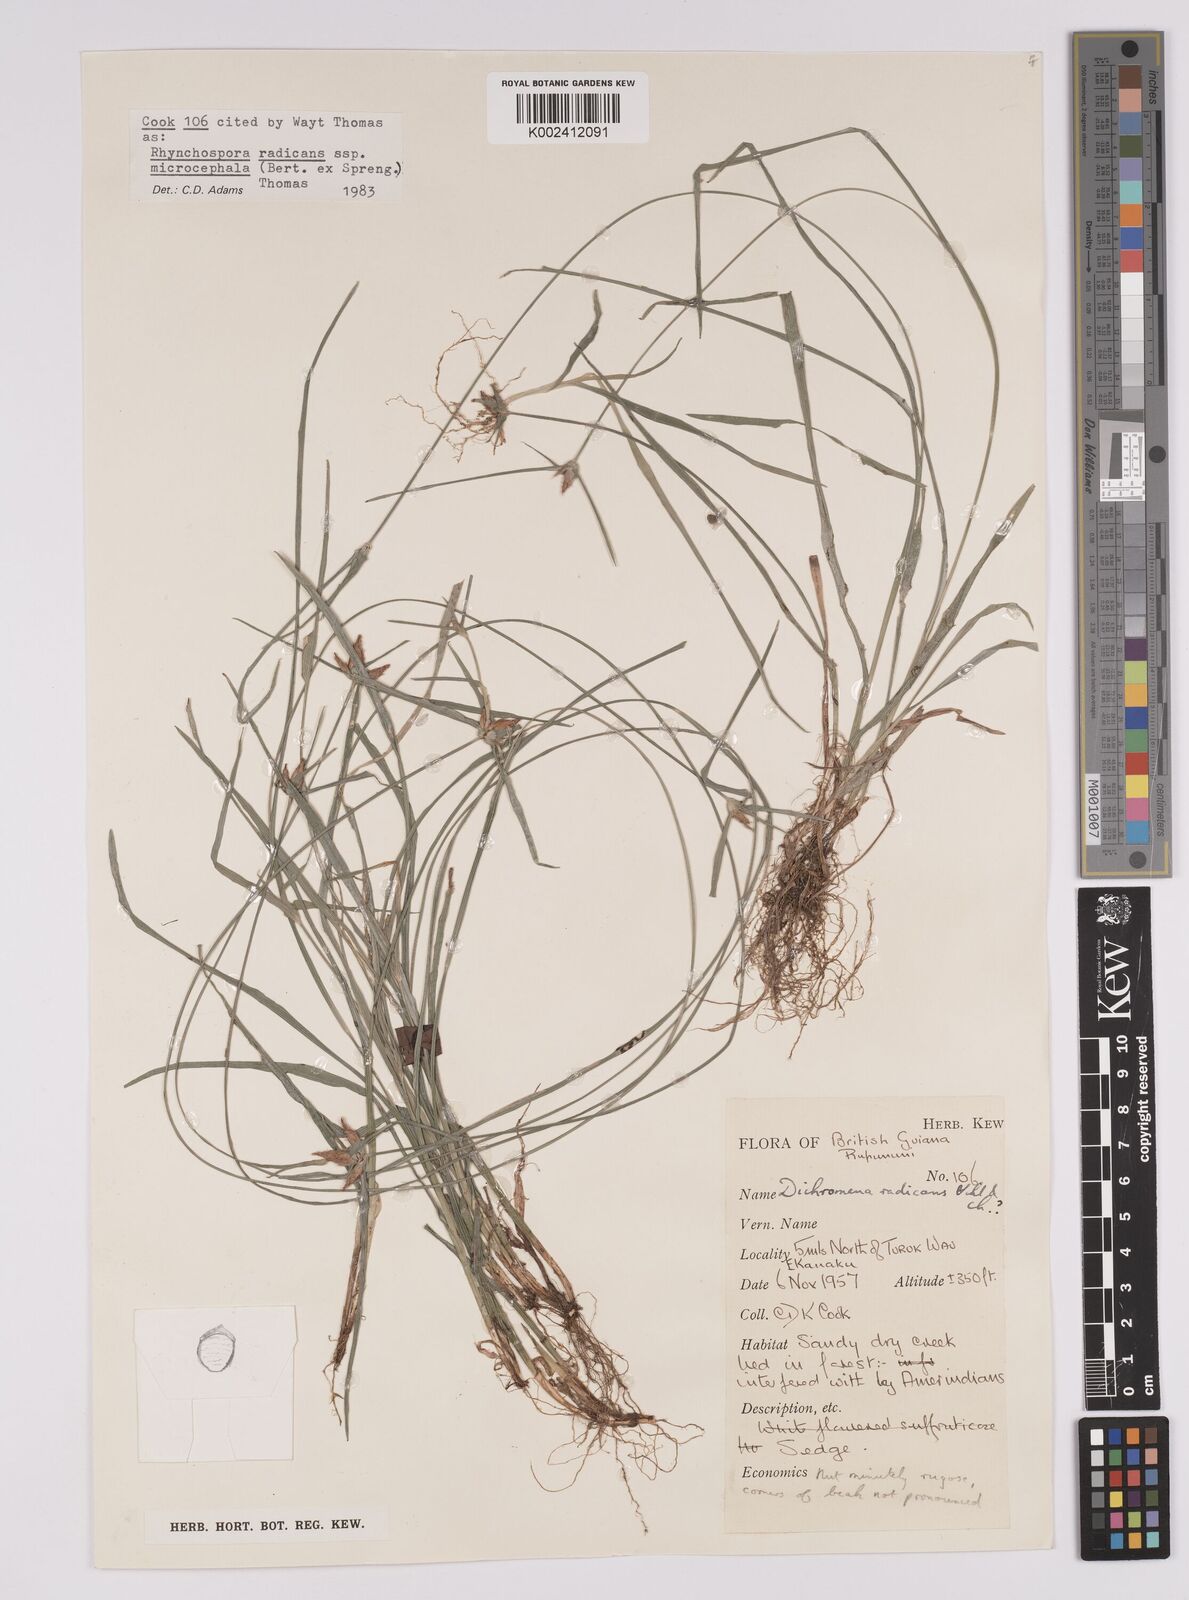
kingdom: Plantae
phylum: Tracheophyta
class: Liliopsida
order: Poales
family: Cyperaceae
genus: Rhynchospora
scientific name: Rhynchospora radicans
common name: Tropical whitetop
